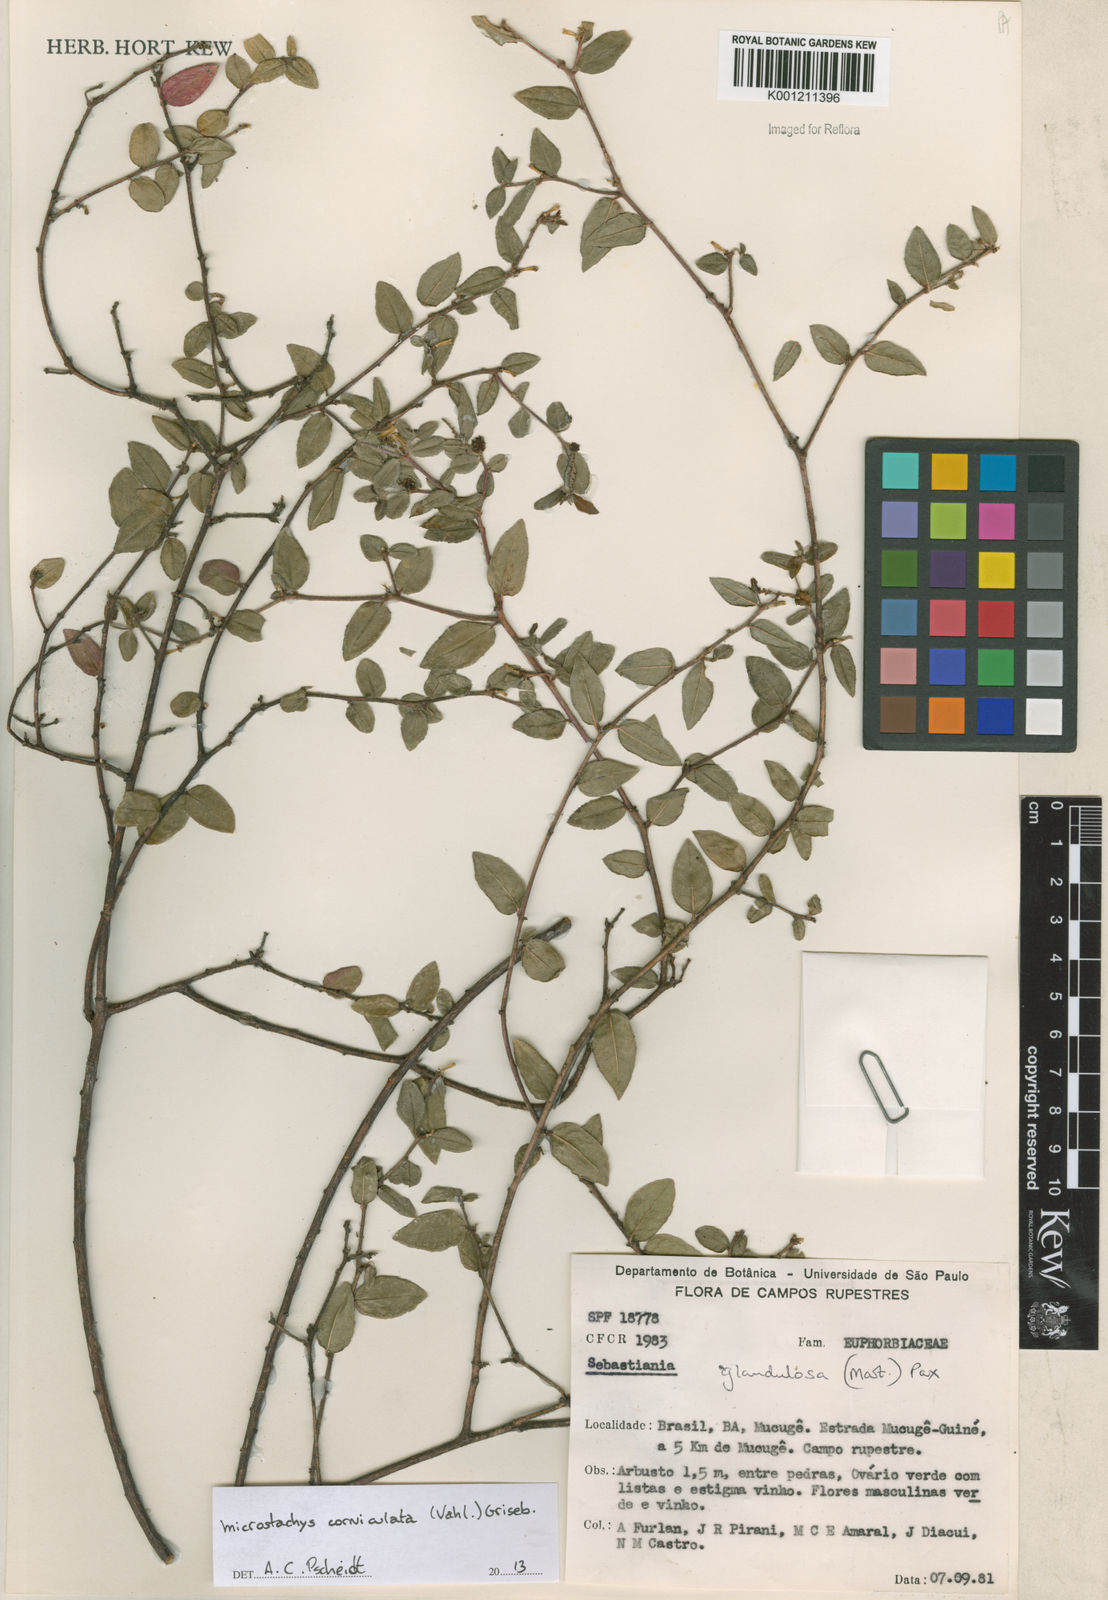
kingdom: Plantae
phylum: Tracheophyta
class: Magnoliopsida
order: Malpighiales
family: Euphorbiaceae
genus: Microstachys
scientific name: Microstachys corniculata
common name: Hato tejas
